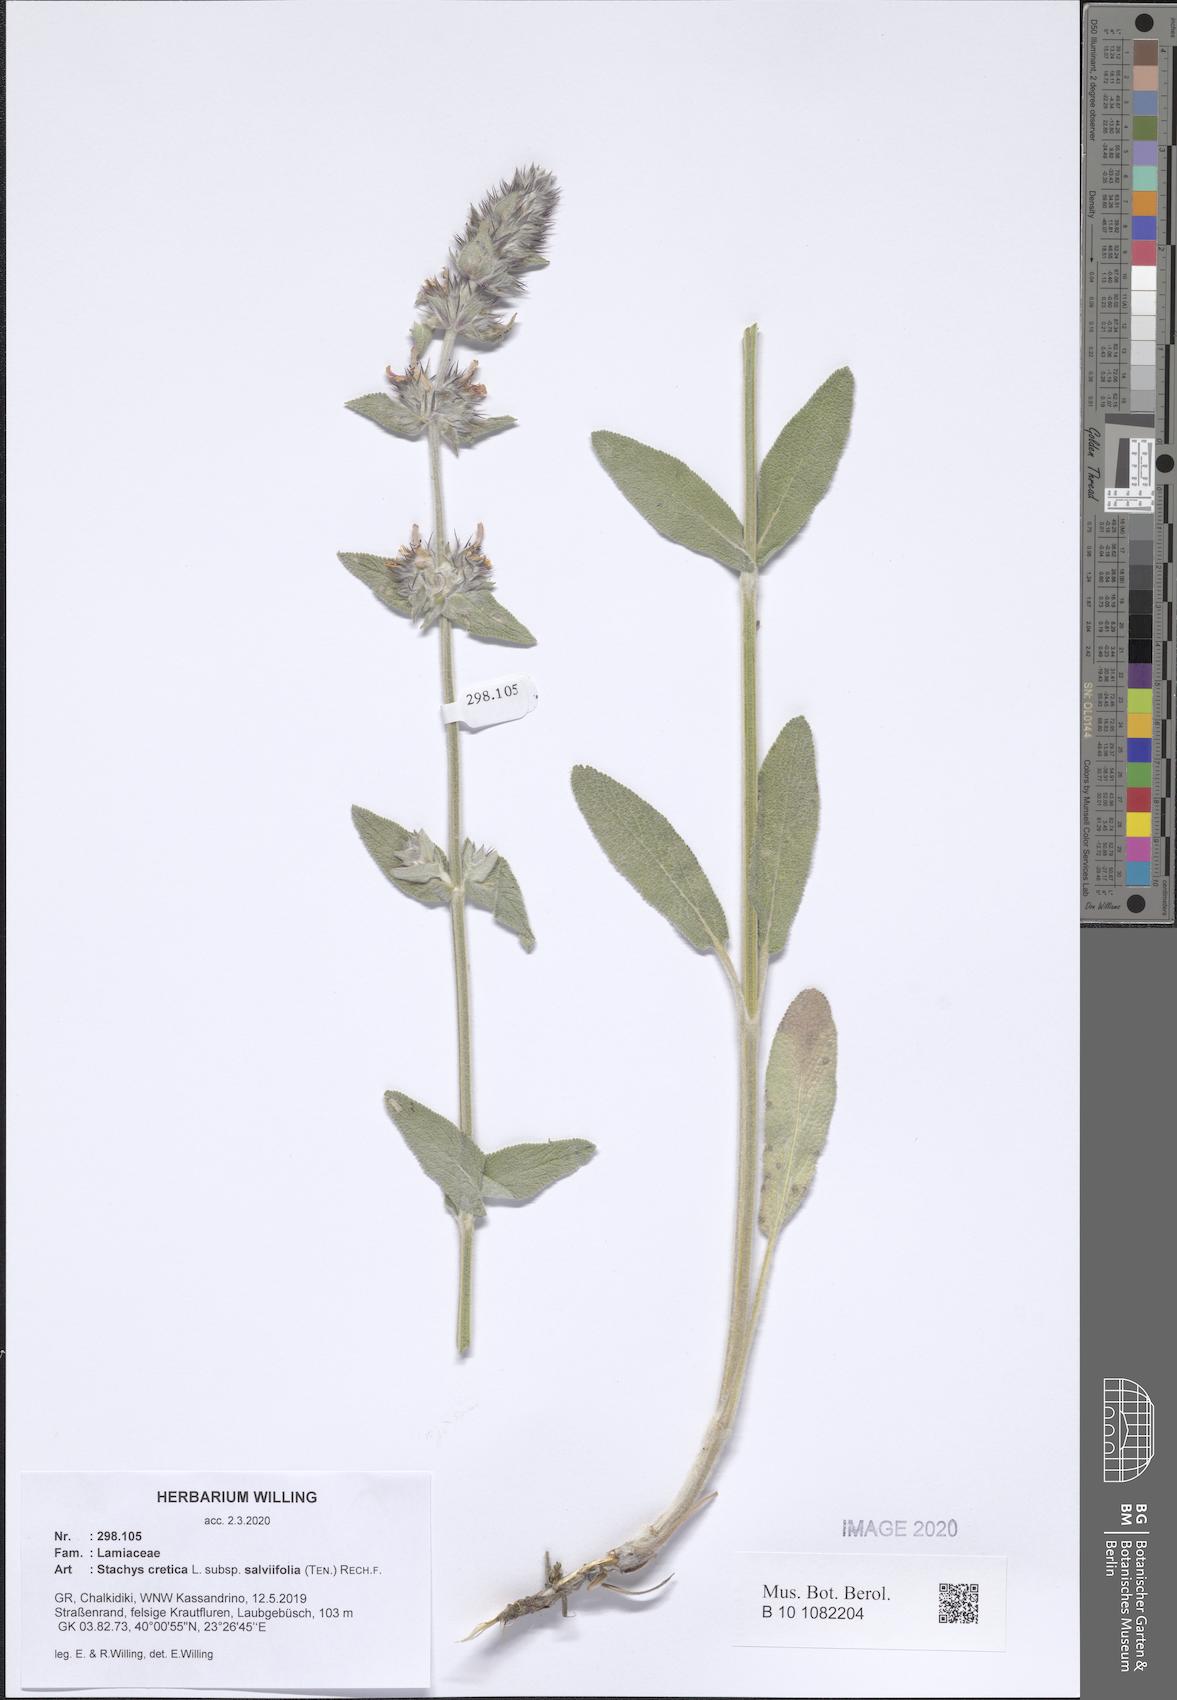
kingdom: Plantae
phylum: Tracheophyta
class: Magnoliopsida
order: Lamiales
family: Lamiaceae
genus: Stachys
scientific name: Stachys cretica
